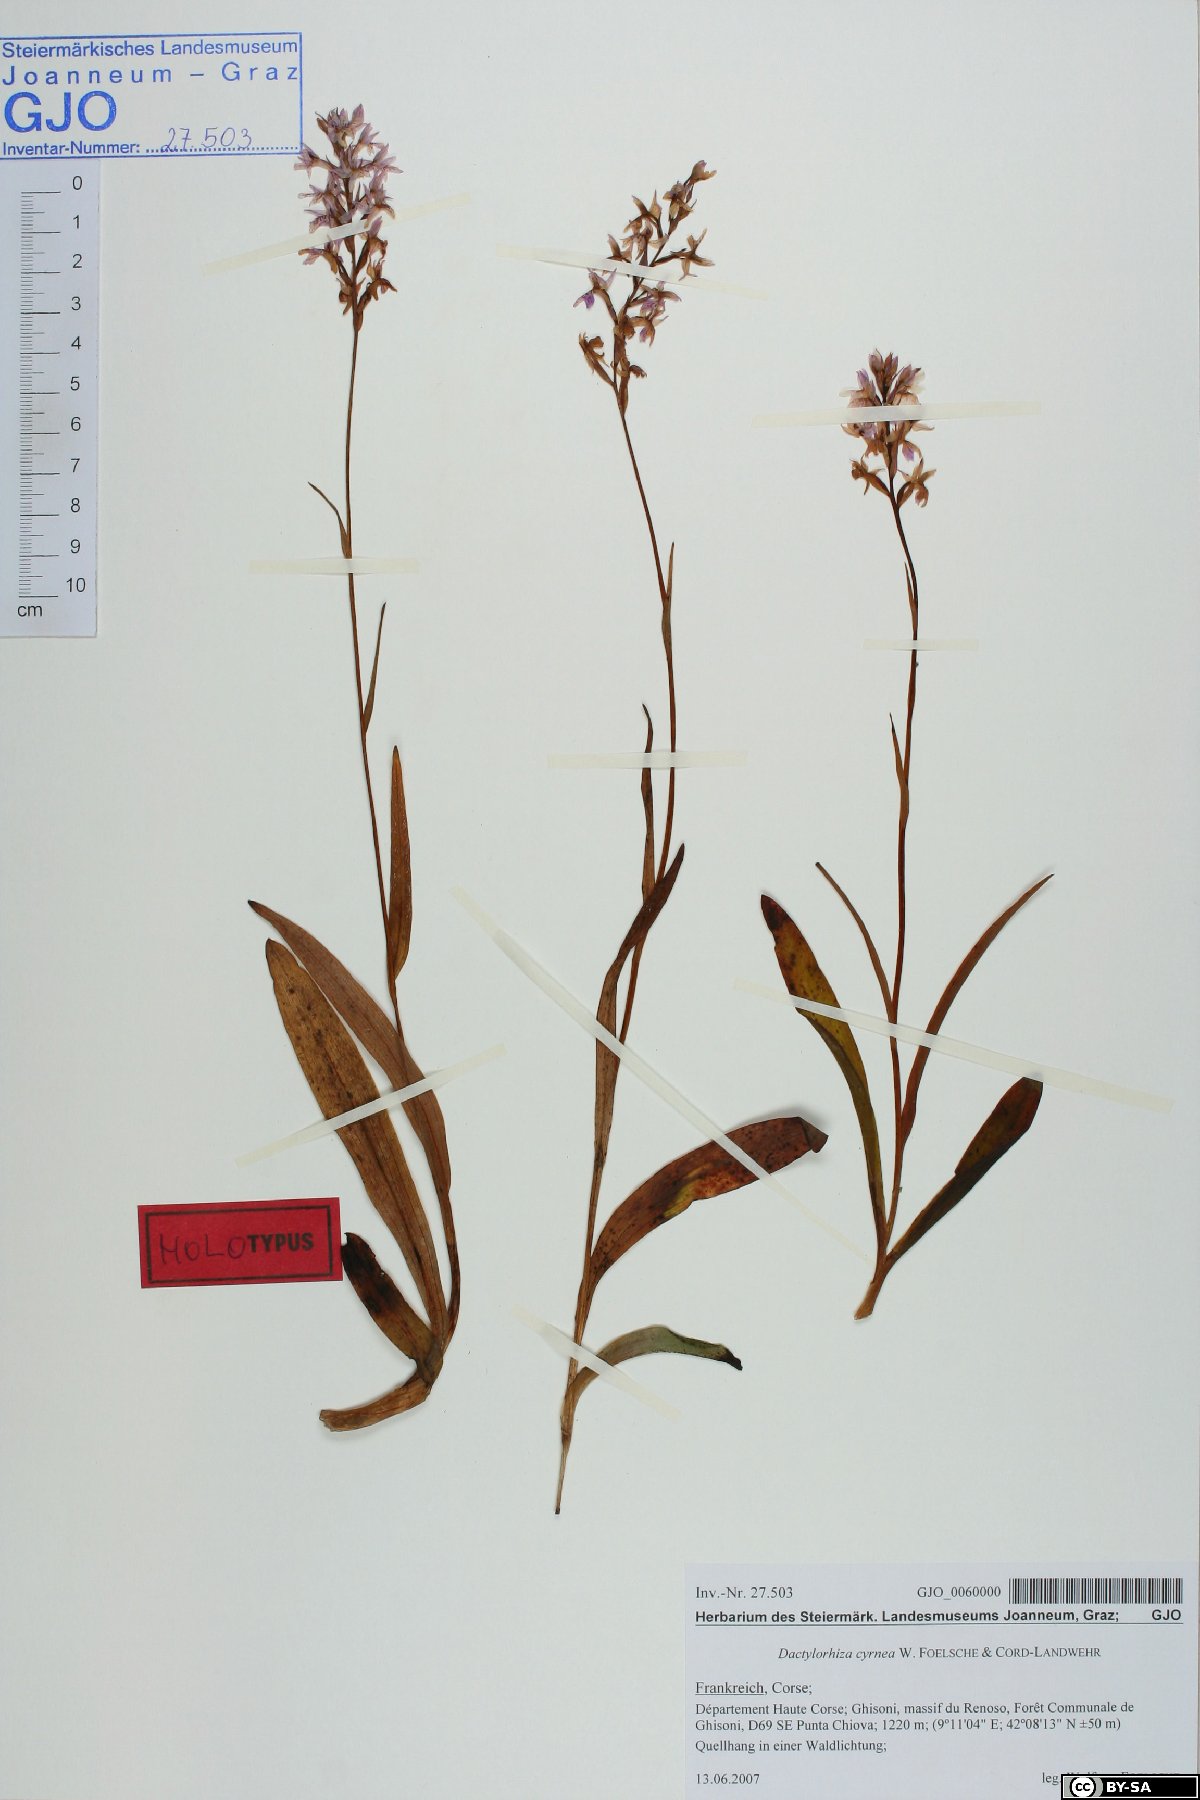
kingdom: Plantae
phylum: Tracheophyta
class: Liliopsida
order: Asparagales
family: Orchidaceae
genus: Dactylorhiza
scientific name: Dactylorhiza cyrnea
